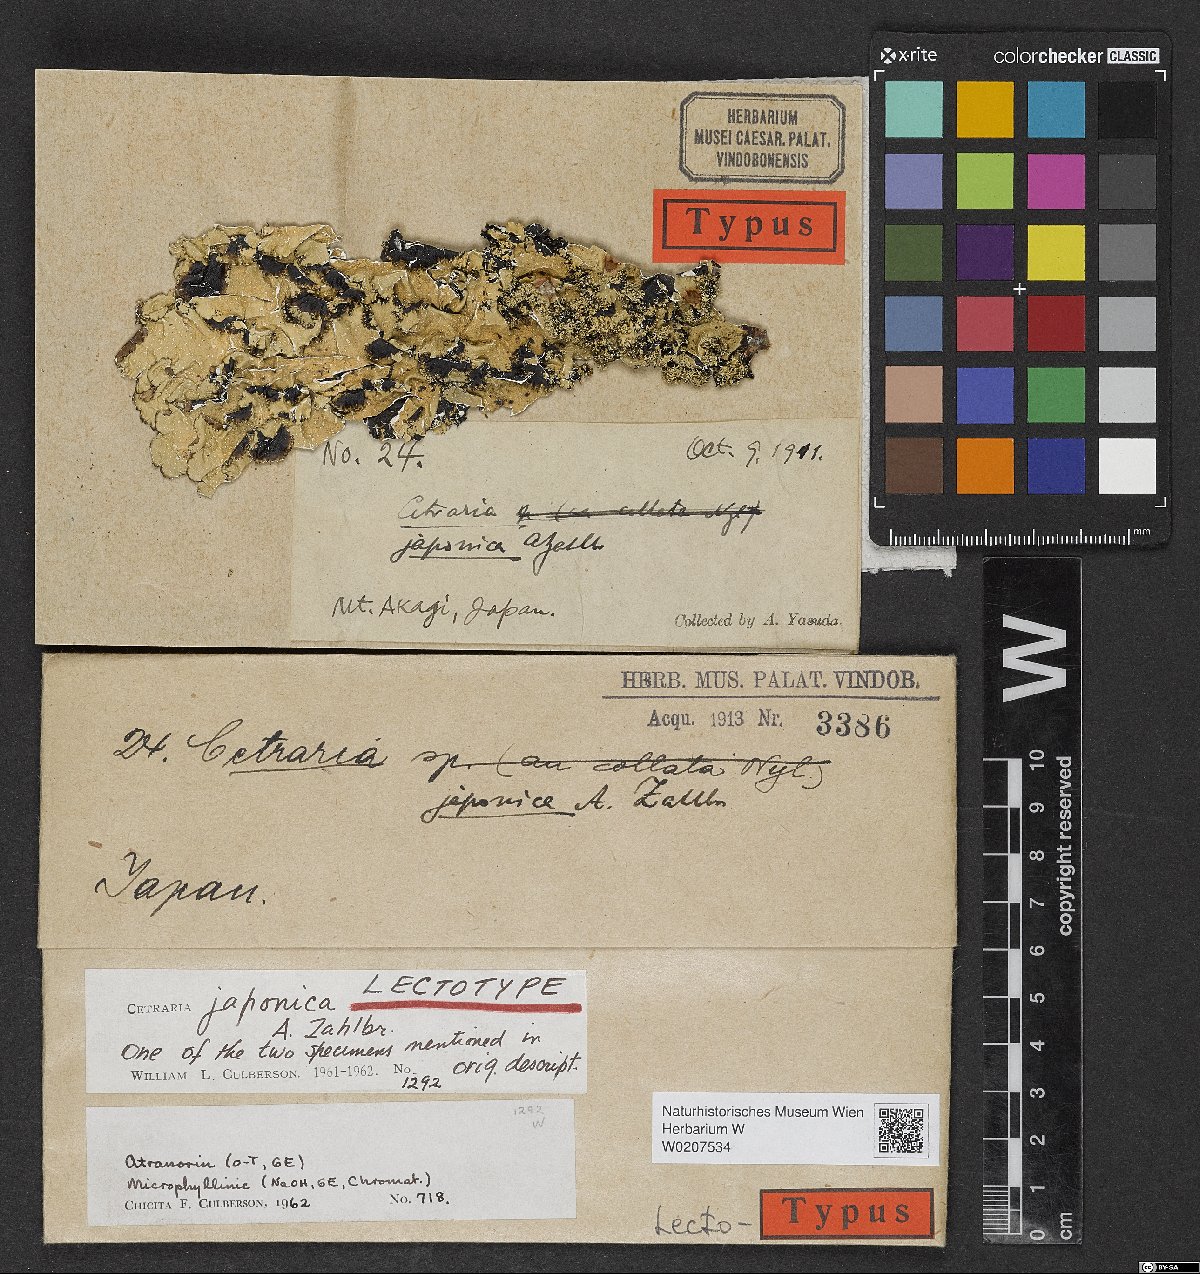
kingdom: Fungi
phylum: Ascomycota
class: Lecanoromycetes
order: Lecanorales
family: Parmeliaceae
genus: Cetrelia
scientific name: Cetrelia japonica
